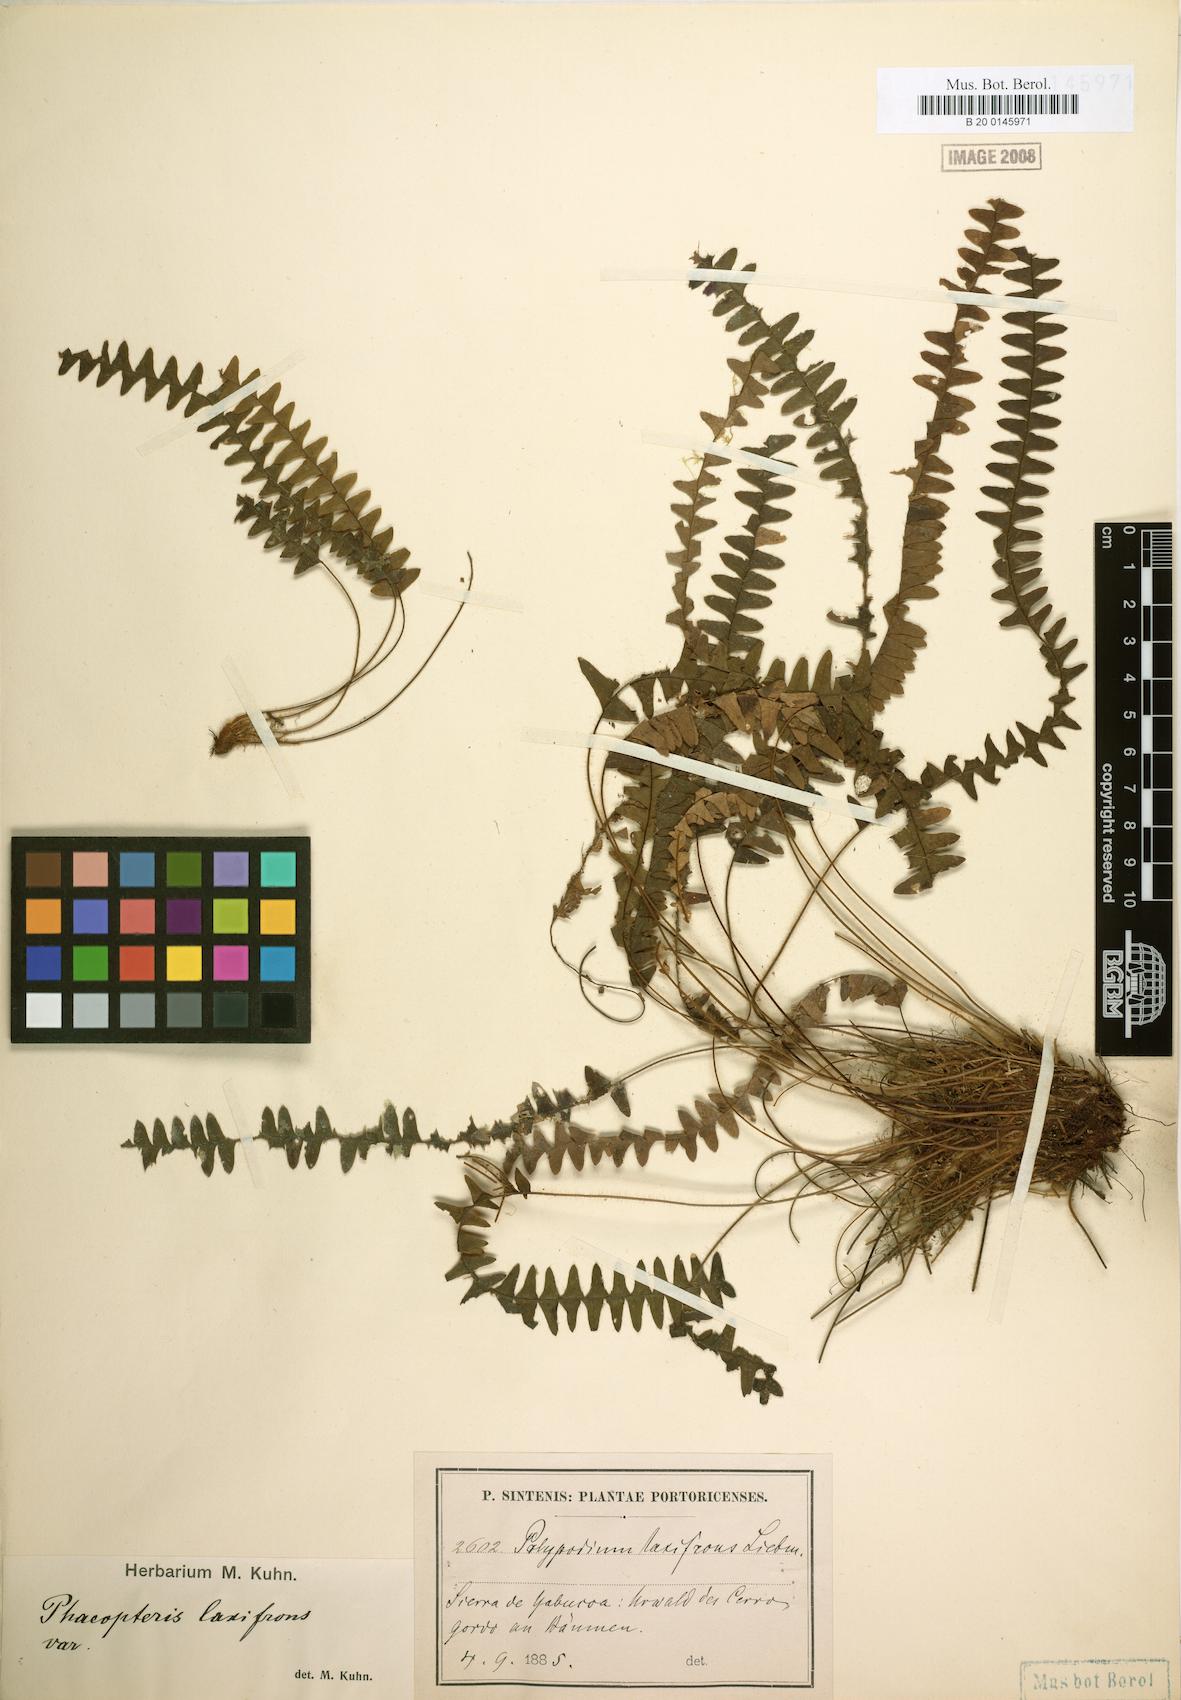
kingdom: Plantae
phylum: Tracheophyta
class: Polypodiopsida
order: Polypodiales
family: Polypodiaceae
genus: Terpsichore
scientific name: Terpsichore asplenifolia
